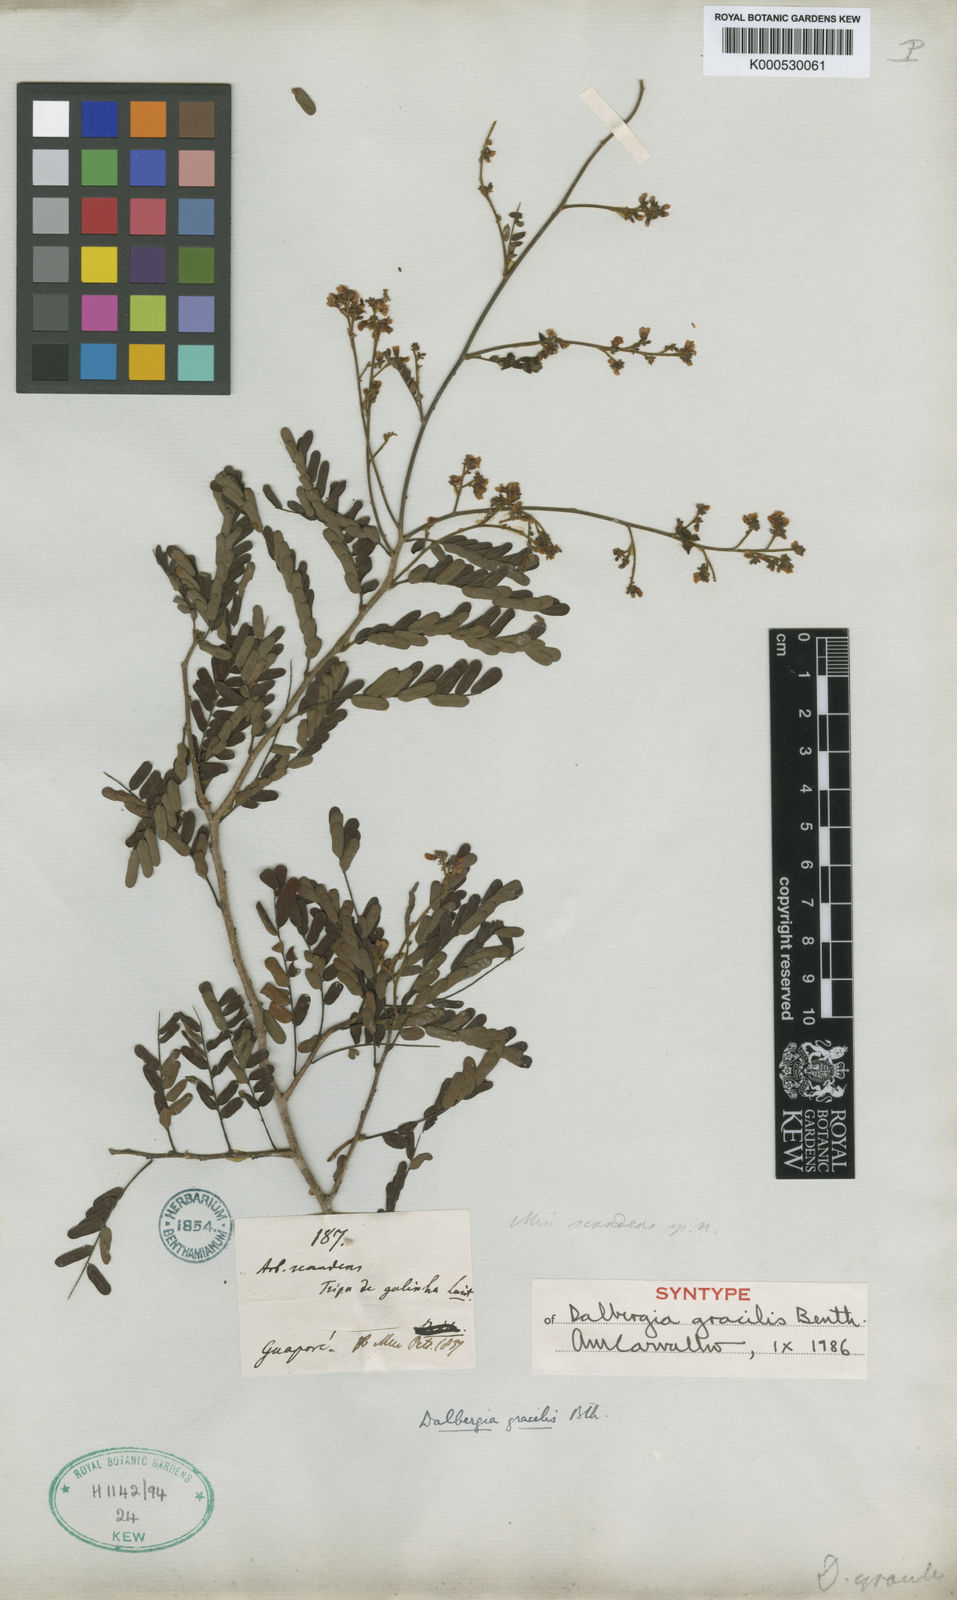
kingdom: Plantae
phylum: Tracheophyta
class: Magnoliopsida
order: Fabales
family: Fabaceae
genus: Dalbergia
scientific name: Dalbergia gracilis
